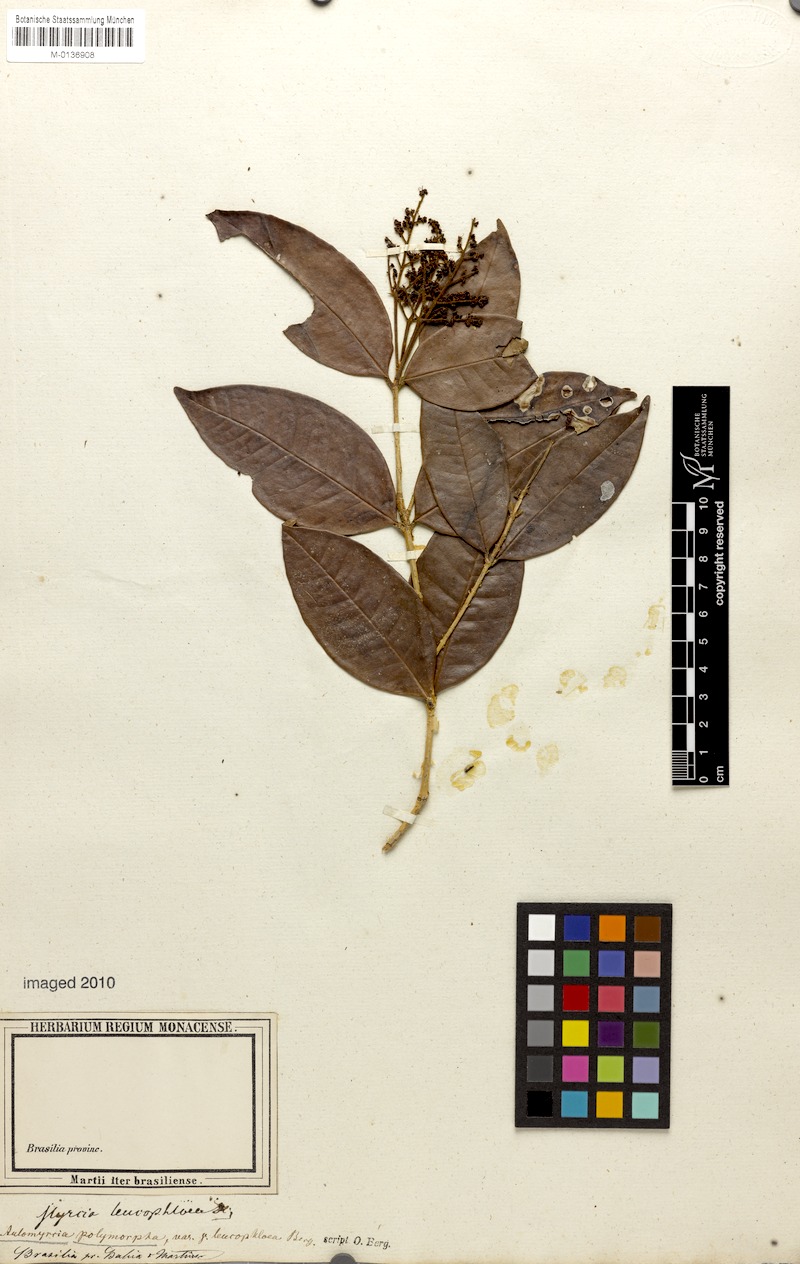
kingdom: Plantae
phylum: Tracheophyta
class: Magnoliopsida
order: Myrtales
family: Myrtaceae
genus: Myrcia
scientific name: Myrcia decorticans
